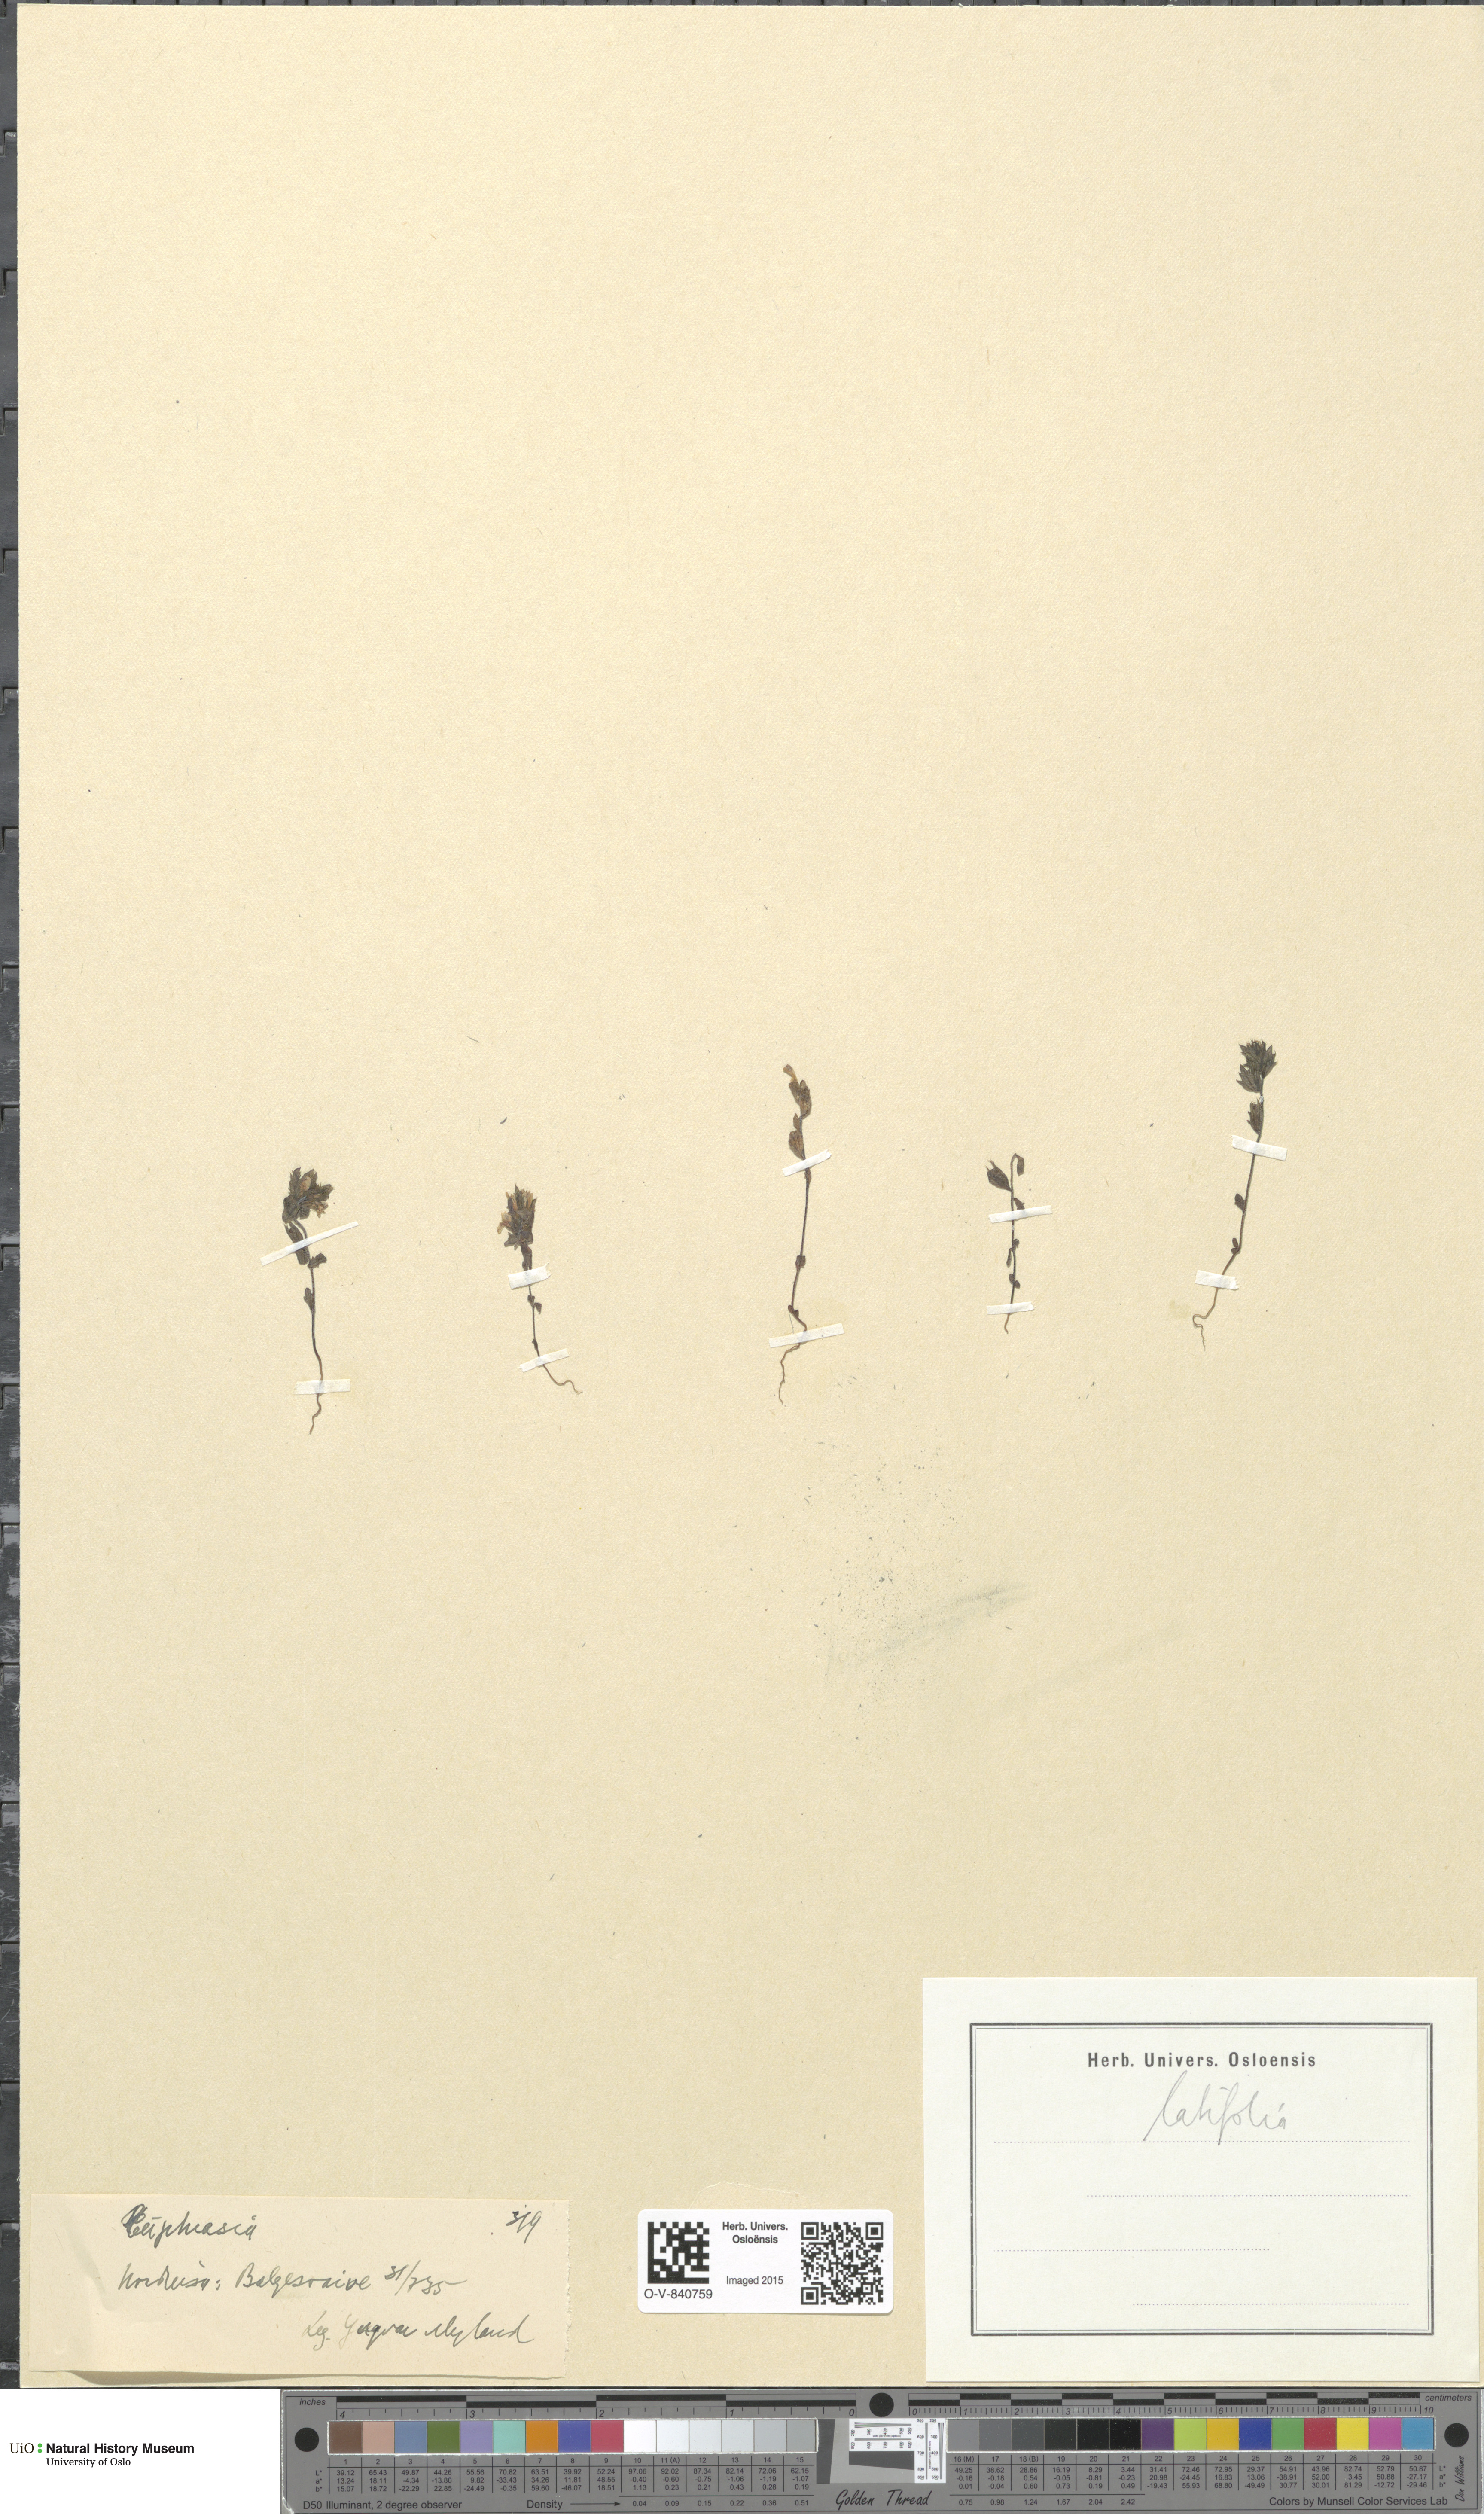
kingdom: Plantae
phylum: Tracheophyta
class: Magnoliopsida
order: Lamiales
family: Orobanchaceae
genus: Euphrasia
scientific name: Euphrasia wettsteinii
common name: Wettstein's eyebright
